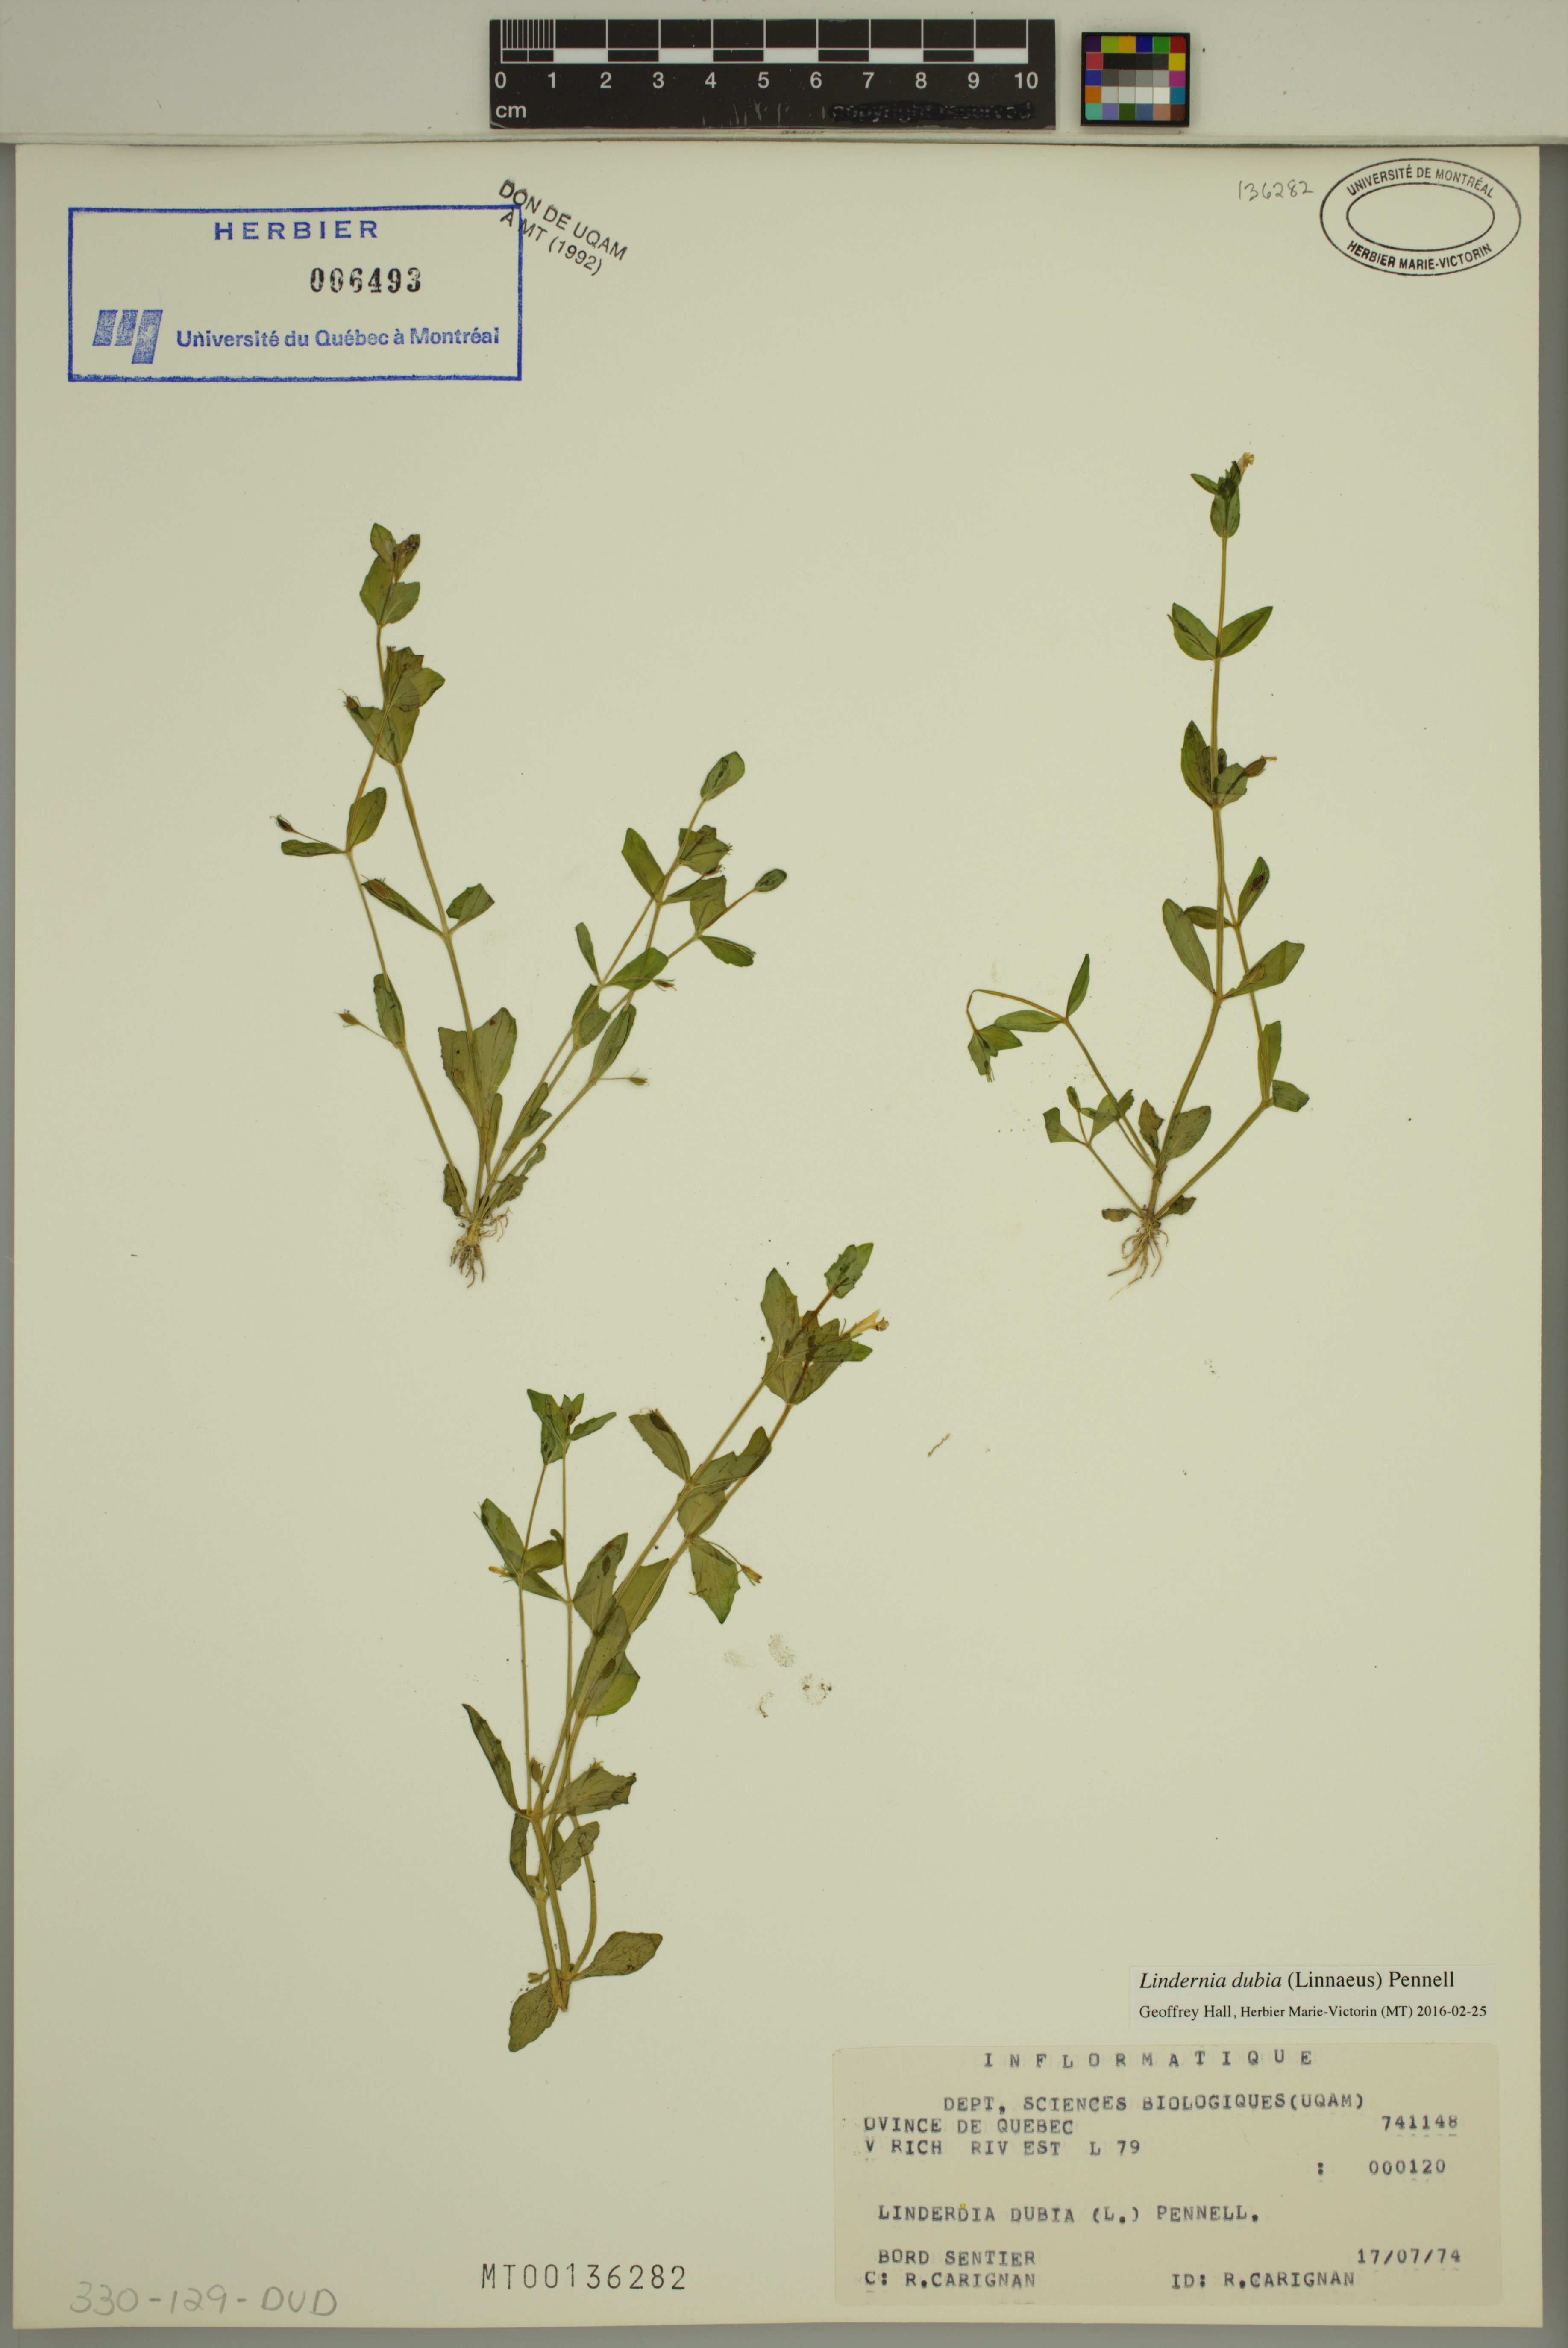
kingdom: Plantae
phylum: Tracheophyta
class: Magnoliopsida
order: Lamiales
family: Linderniaceae
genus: Lindernia
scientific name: Lindernia dubia
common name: Annual false pimpernel
